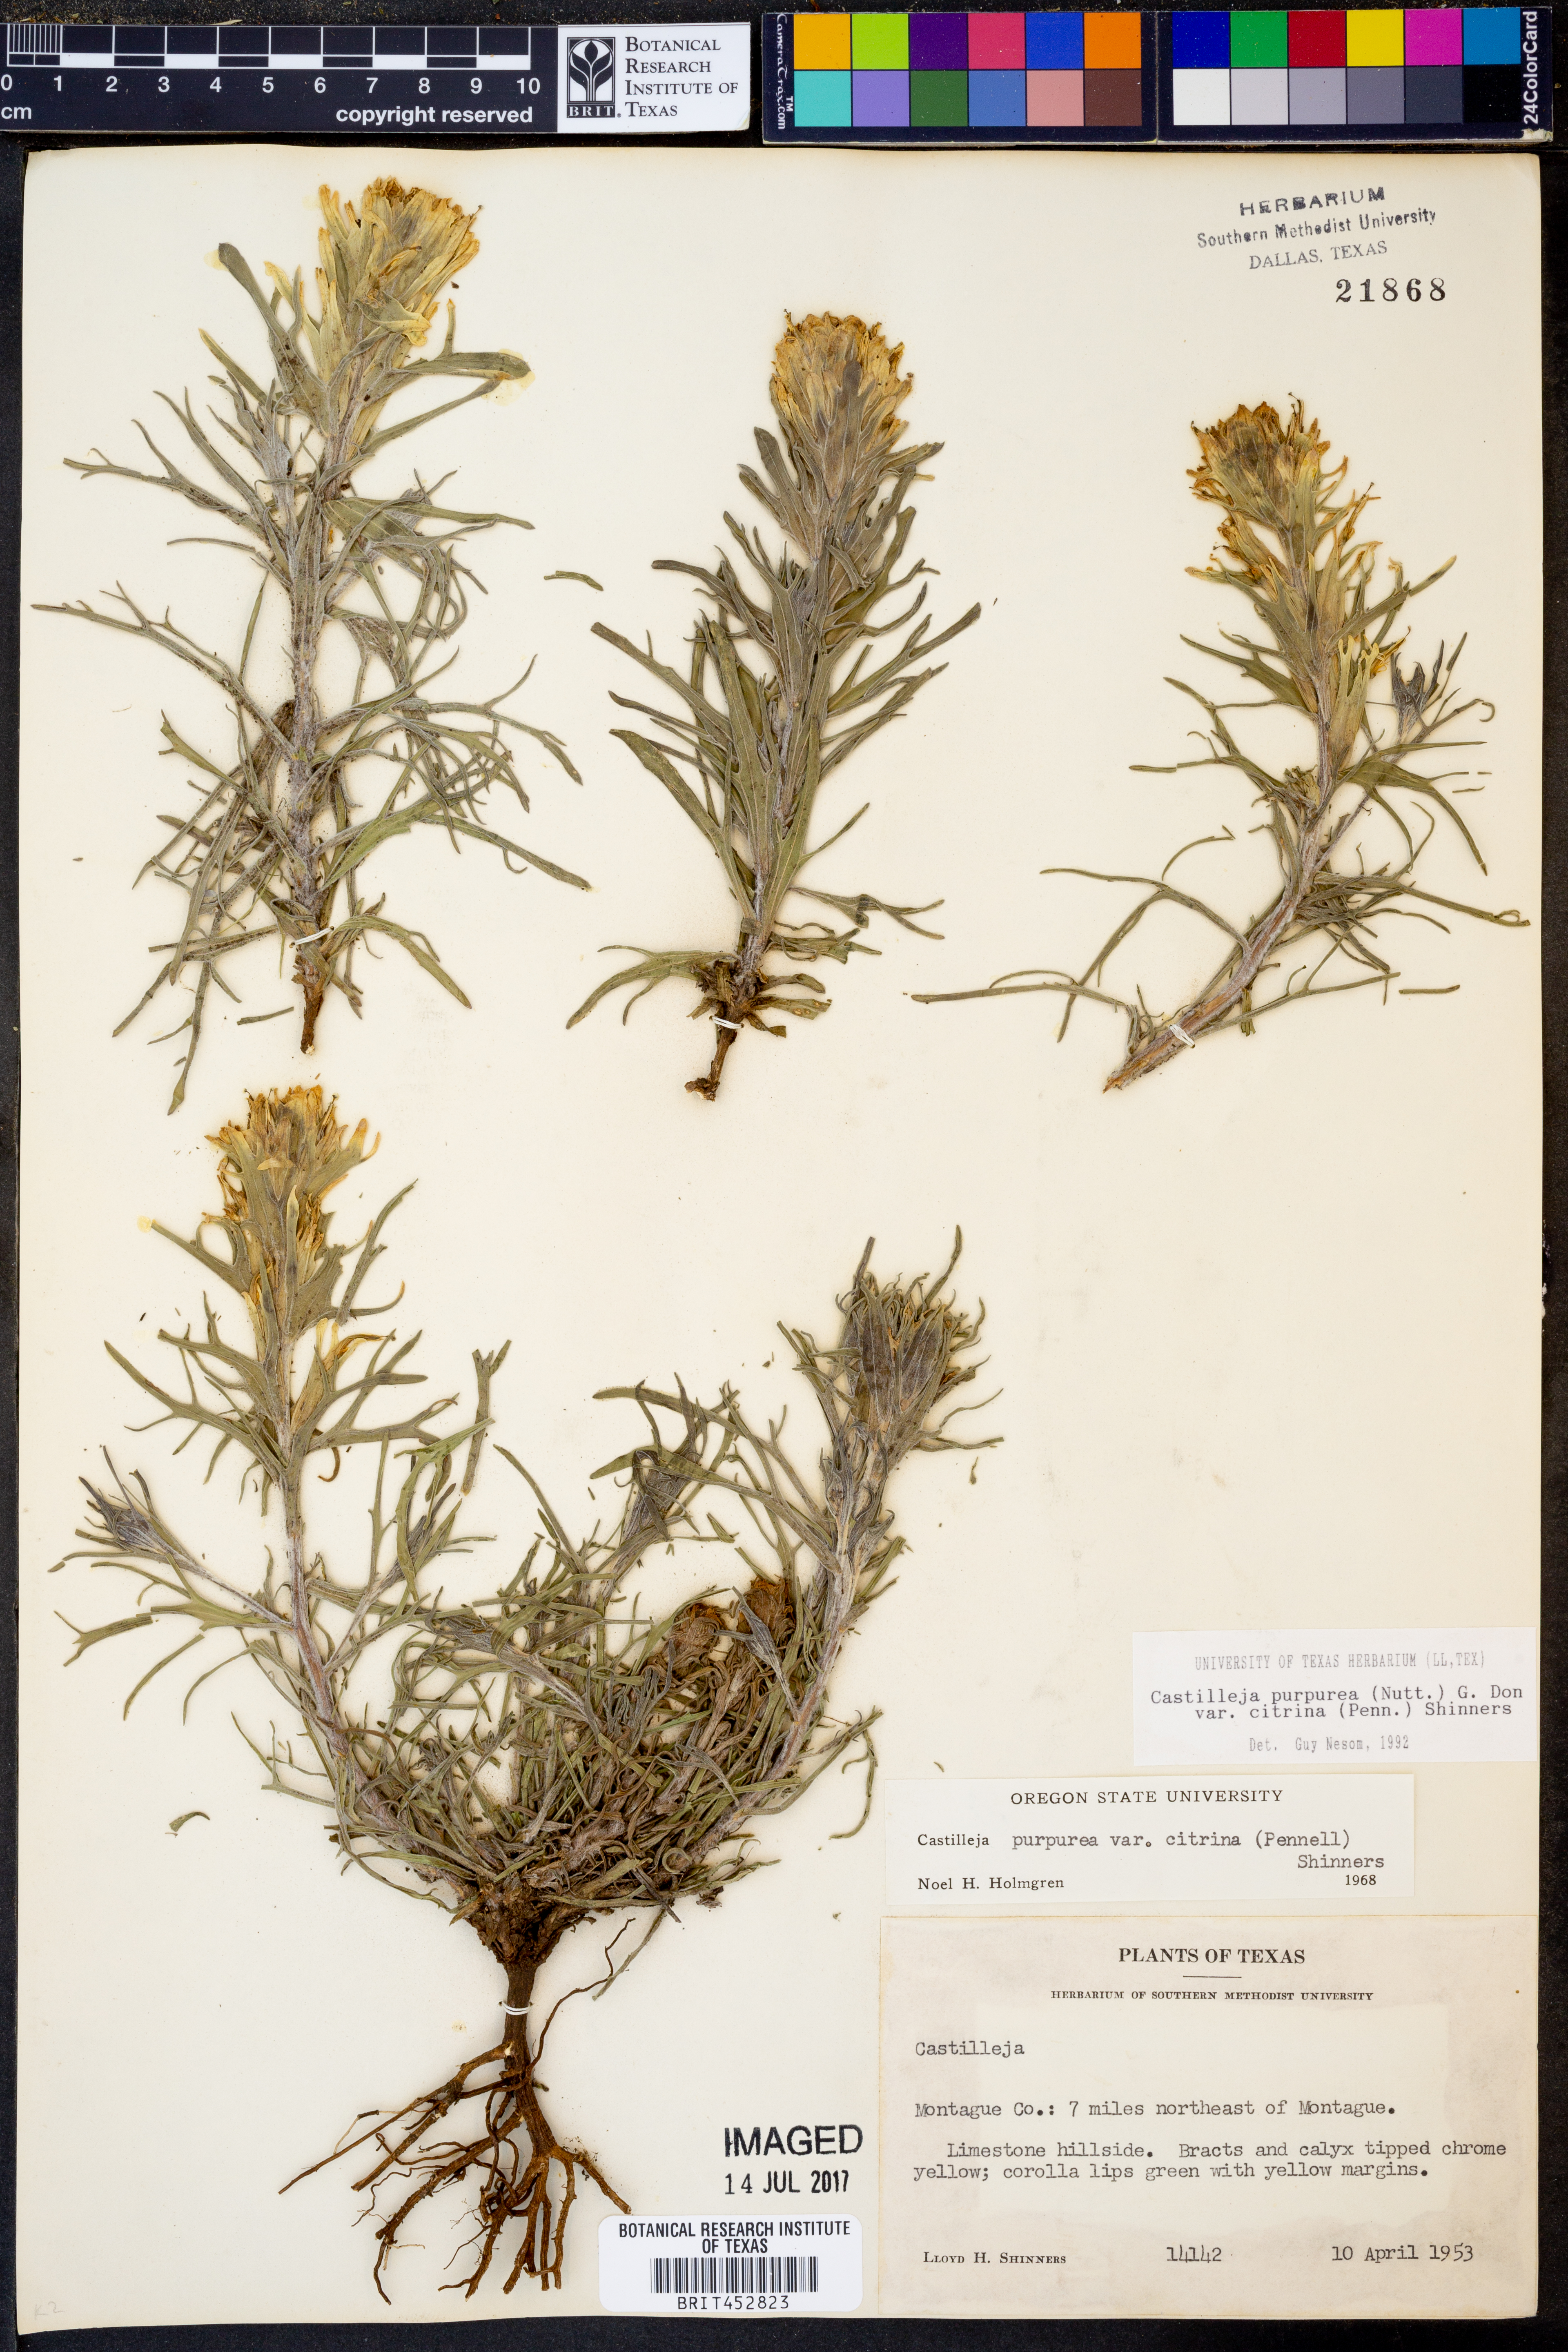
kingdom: Plantae
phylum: Tracheophyta
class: Magnoliopsida
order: Lamiales
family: Orobanchaceae
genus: Castilleja
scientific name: Castilleja citrina
